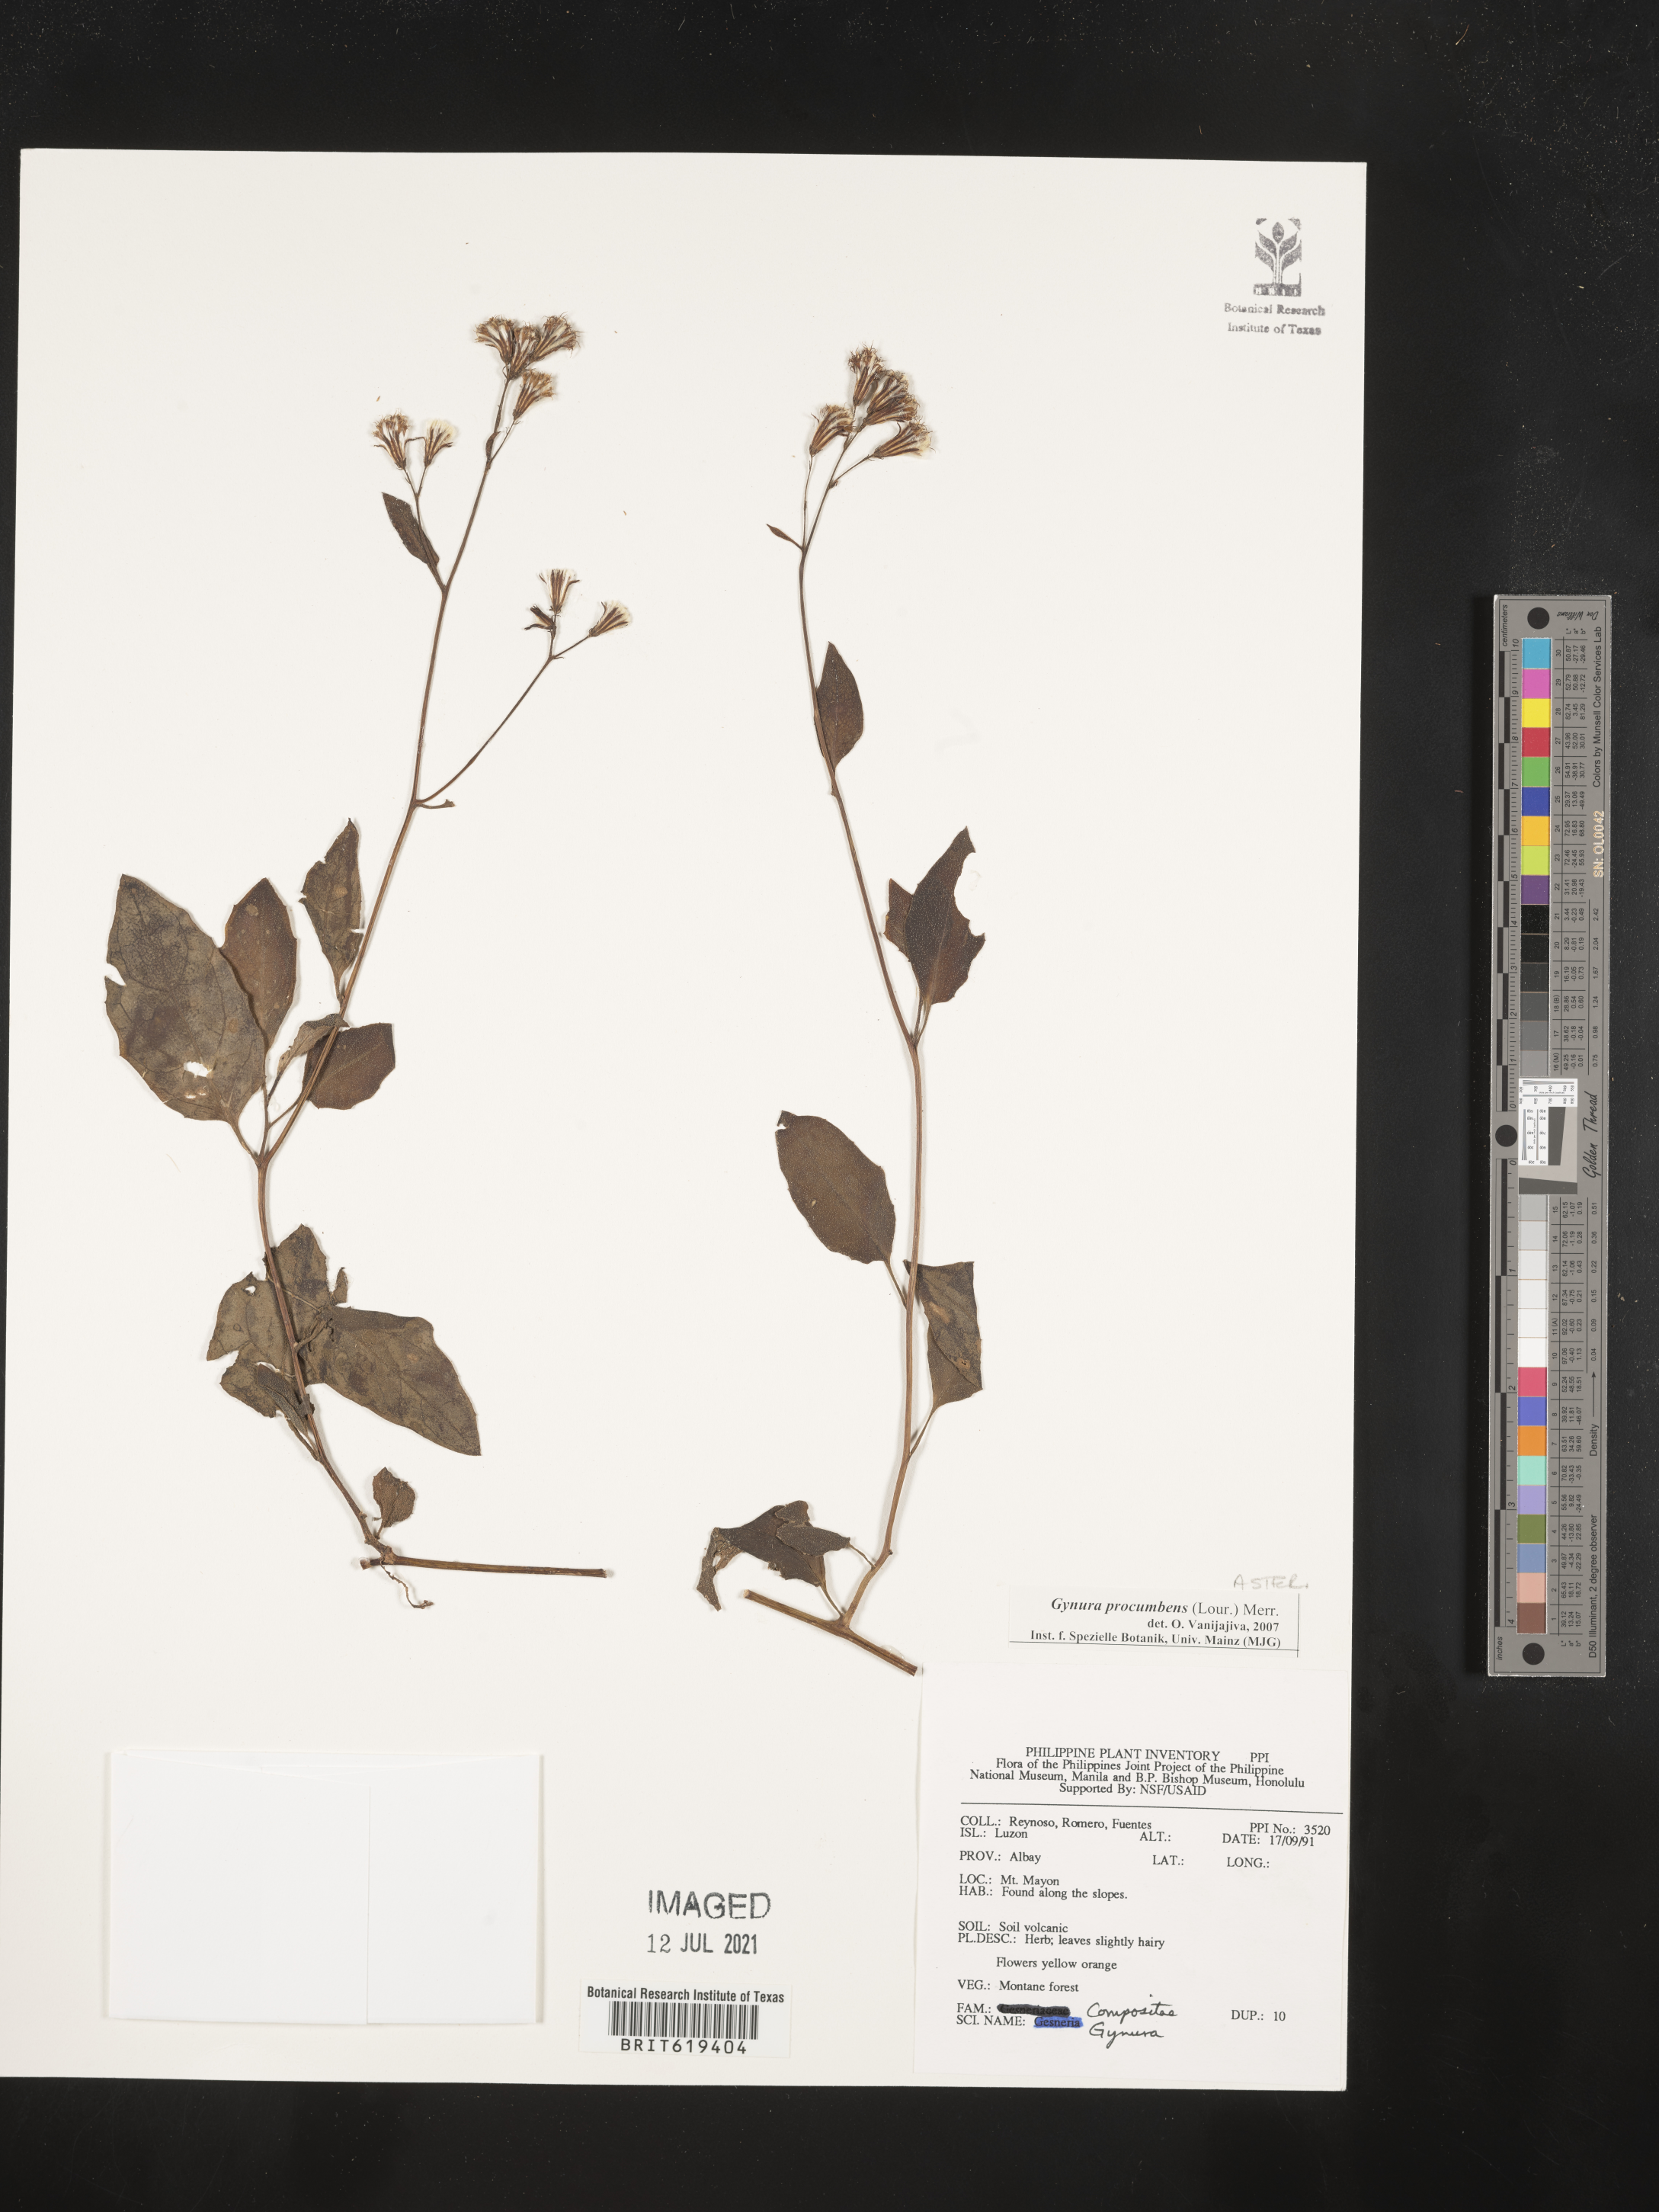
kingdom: Plantae
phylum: Tracheophyta
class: Magnoliopsida
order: Asterales
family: Asteraceae
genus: Gynura
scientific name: Gynura procumbens
